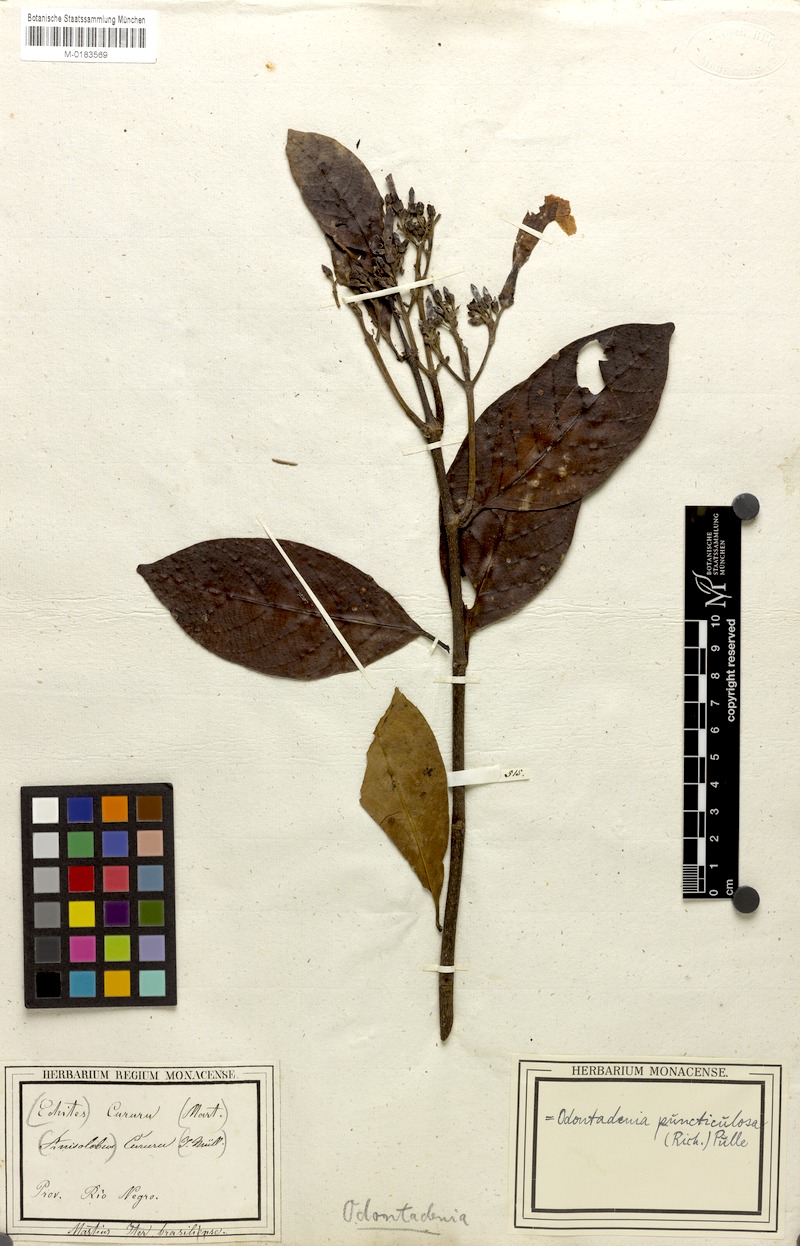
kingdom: Plantae
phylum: Tracheophyta
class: Magnoliopsida
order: Gentianales
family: Apocynaceae
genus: Odontadenia
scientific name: Odontadenia puncticulosa
